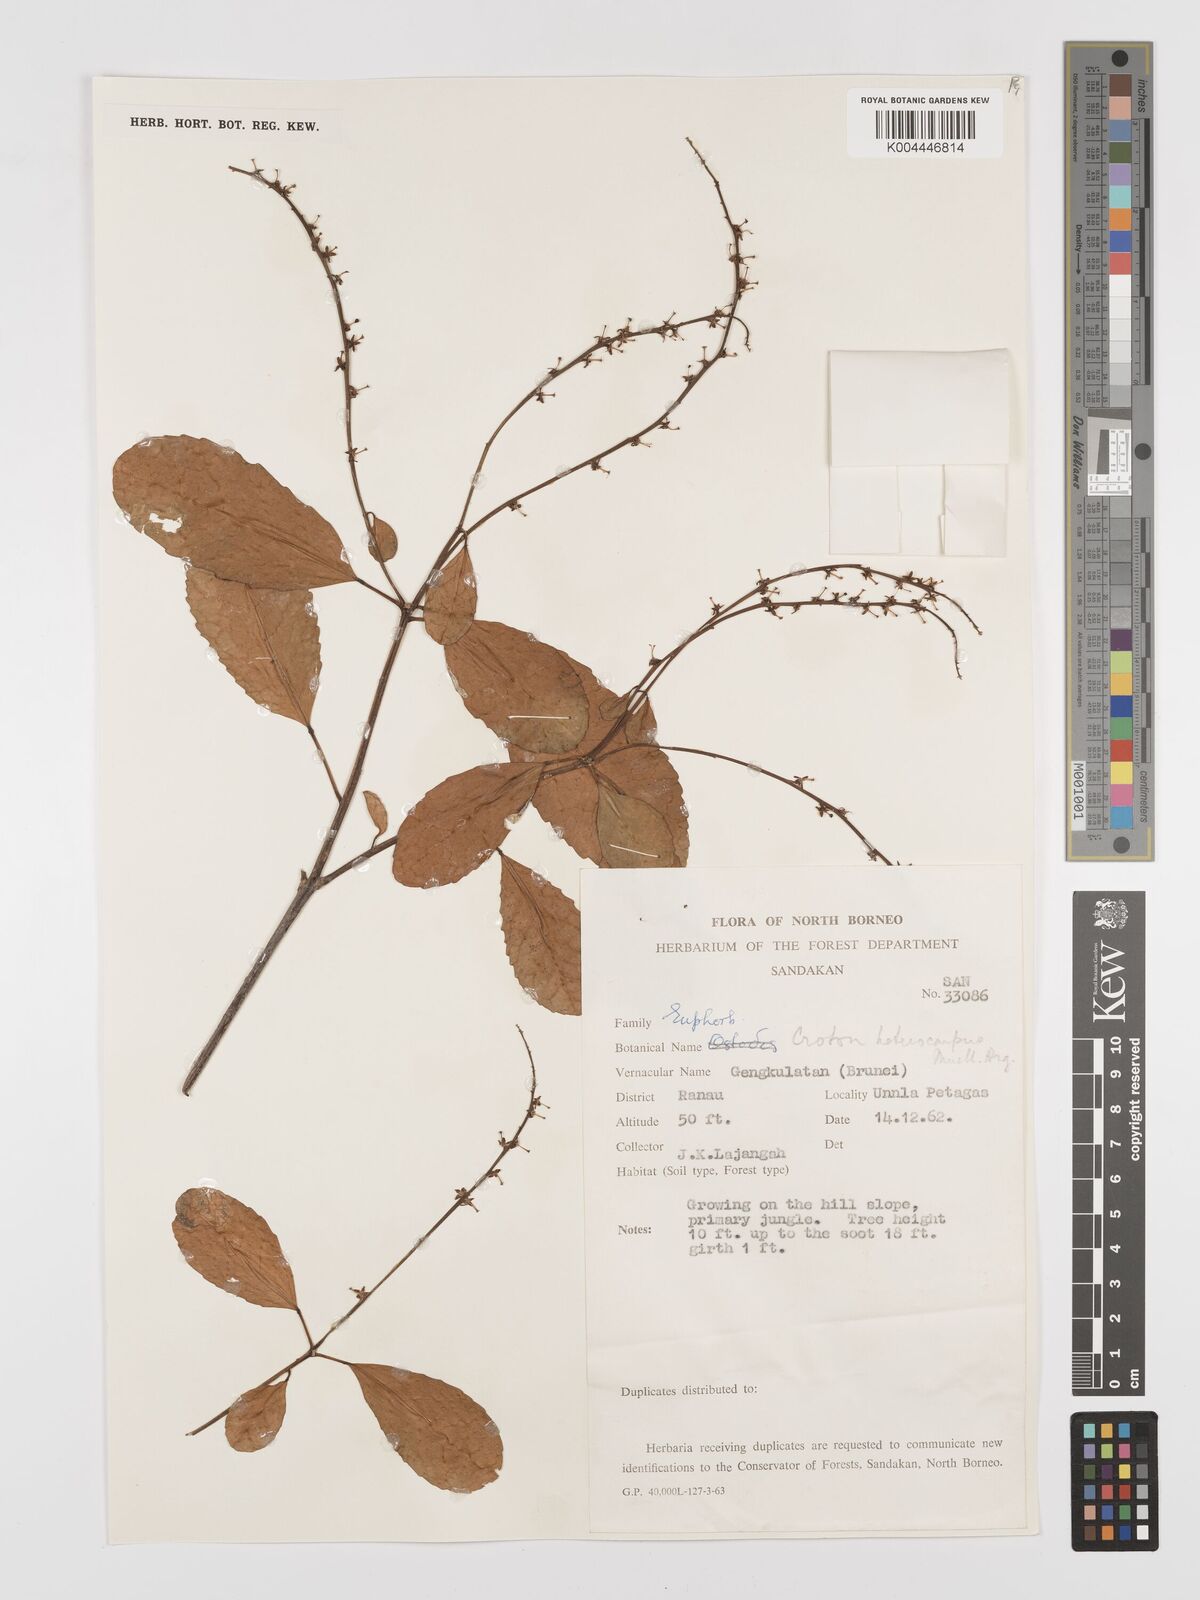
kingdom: Plantae
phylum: Tracheophyta
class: Magnoliopsida
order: Malpighiales
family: Euphorbiaceae
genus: Croton
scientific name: Croton heterocarpus
